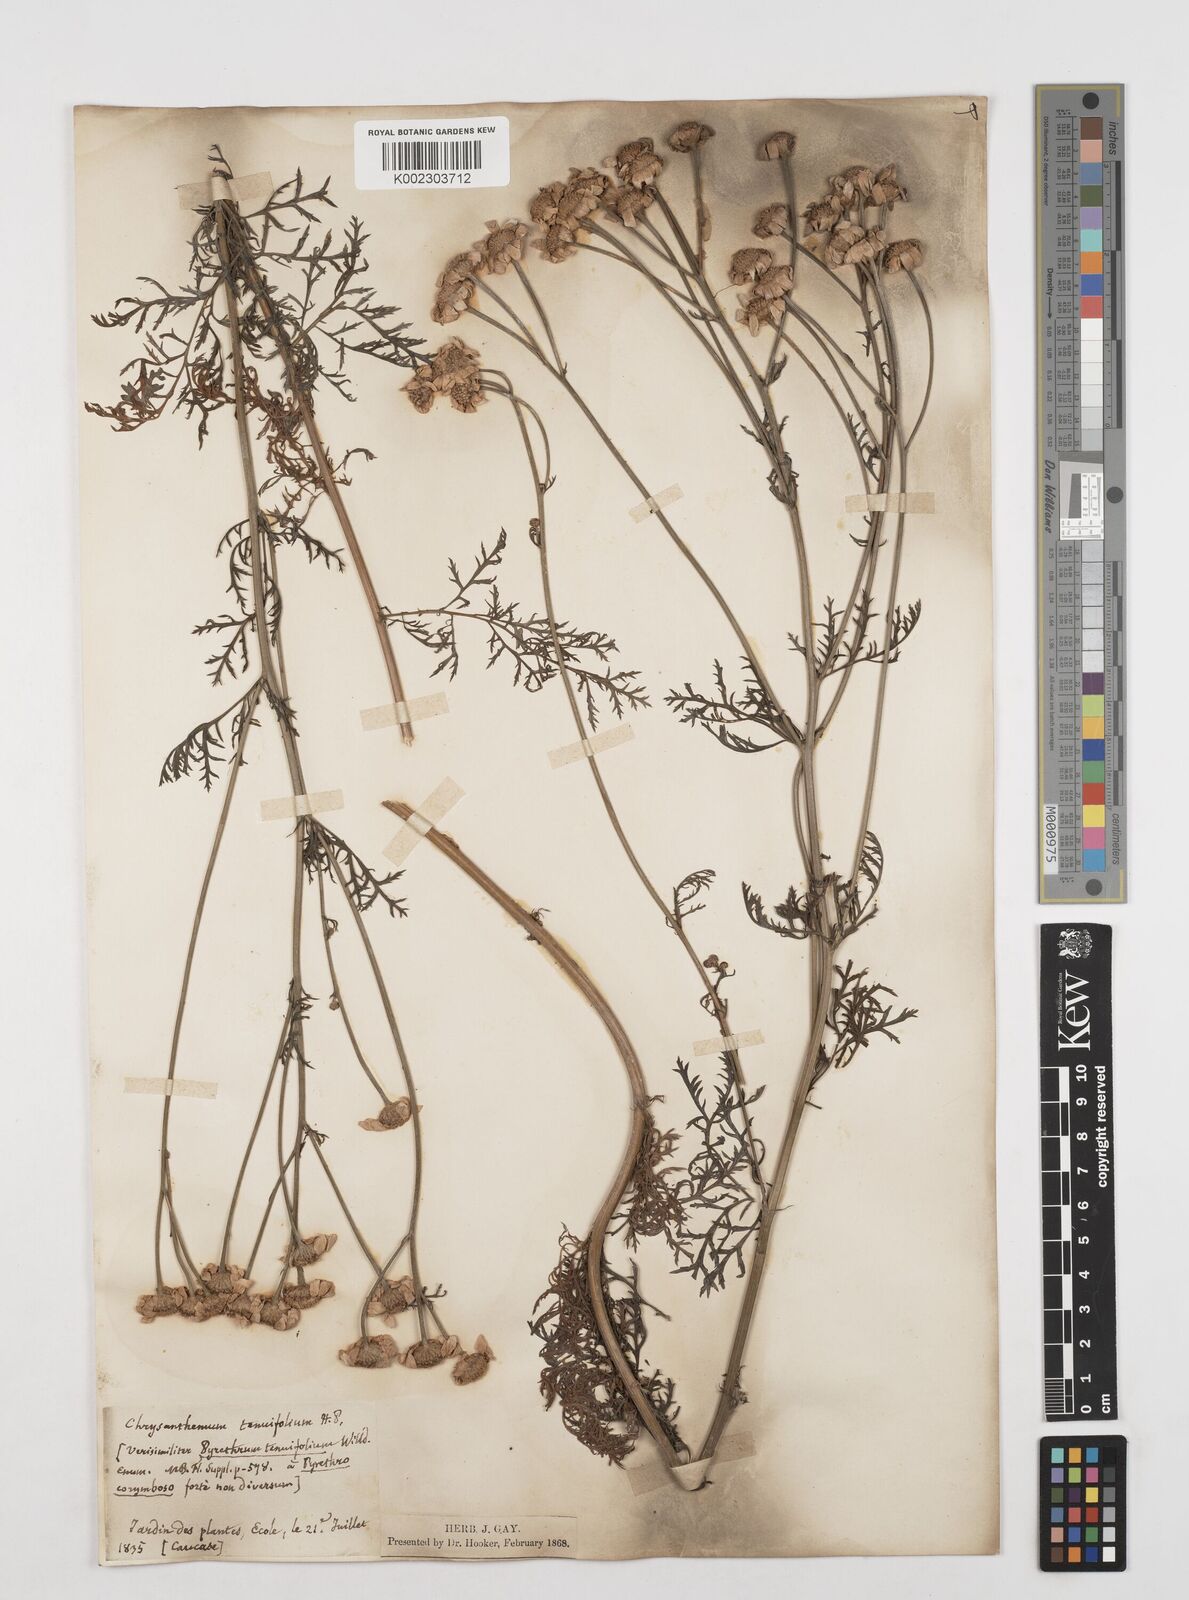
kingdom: Plantae
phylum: Tracheophyta
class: Magnoliopsida
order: Asterales
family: Asteraceae
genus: Tanacetum
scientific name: Tanacetum achilleae
